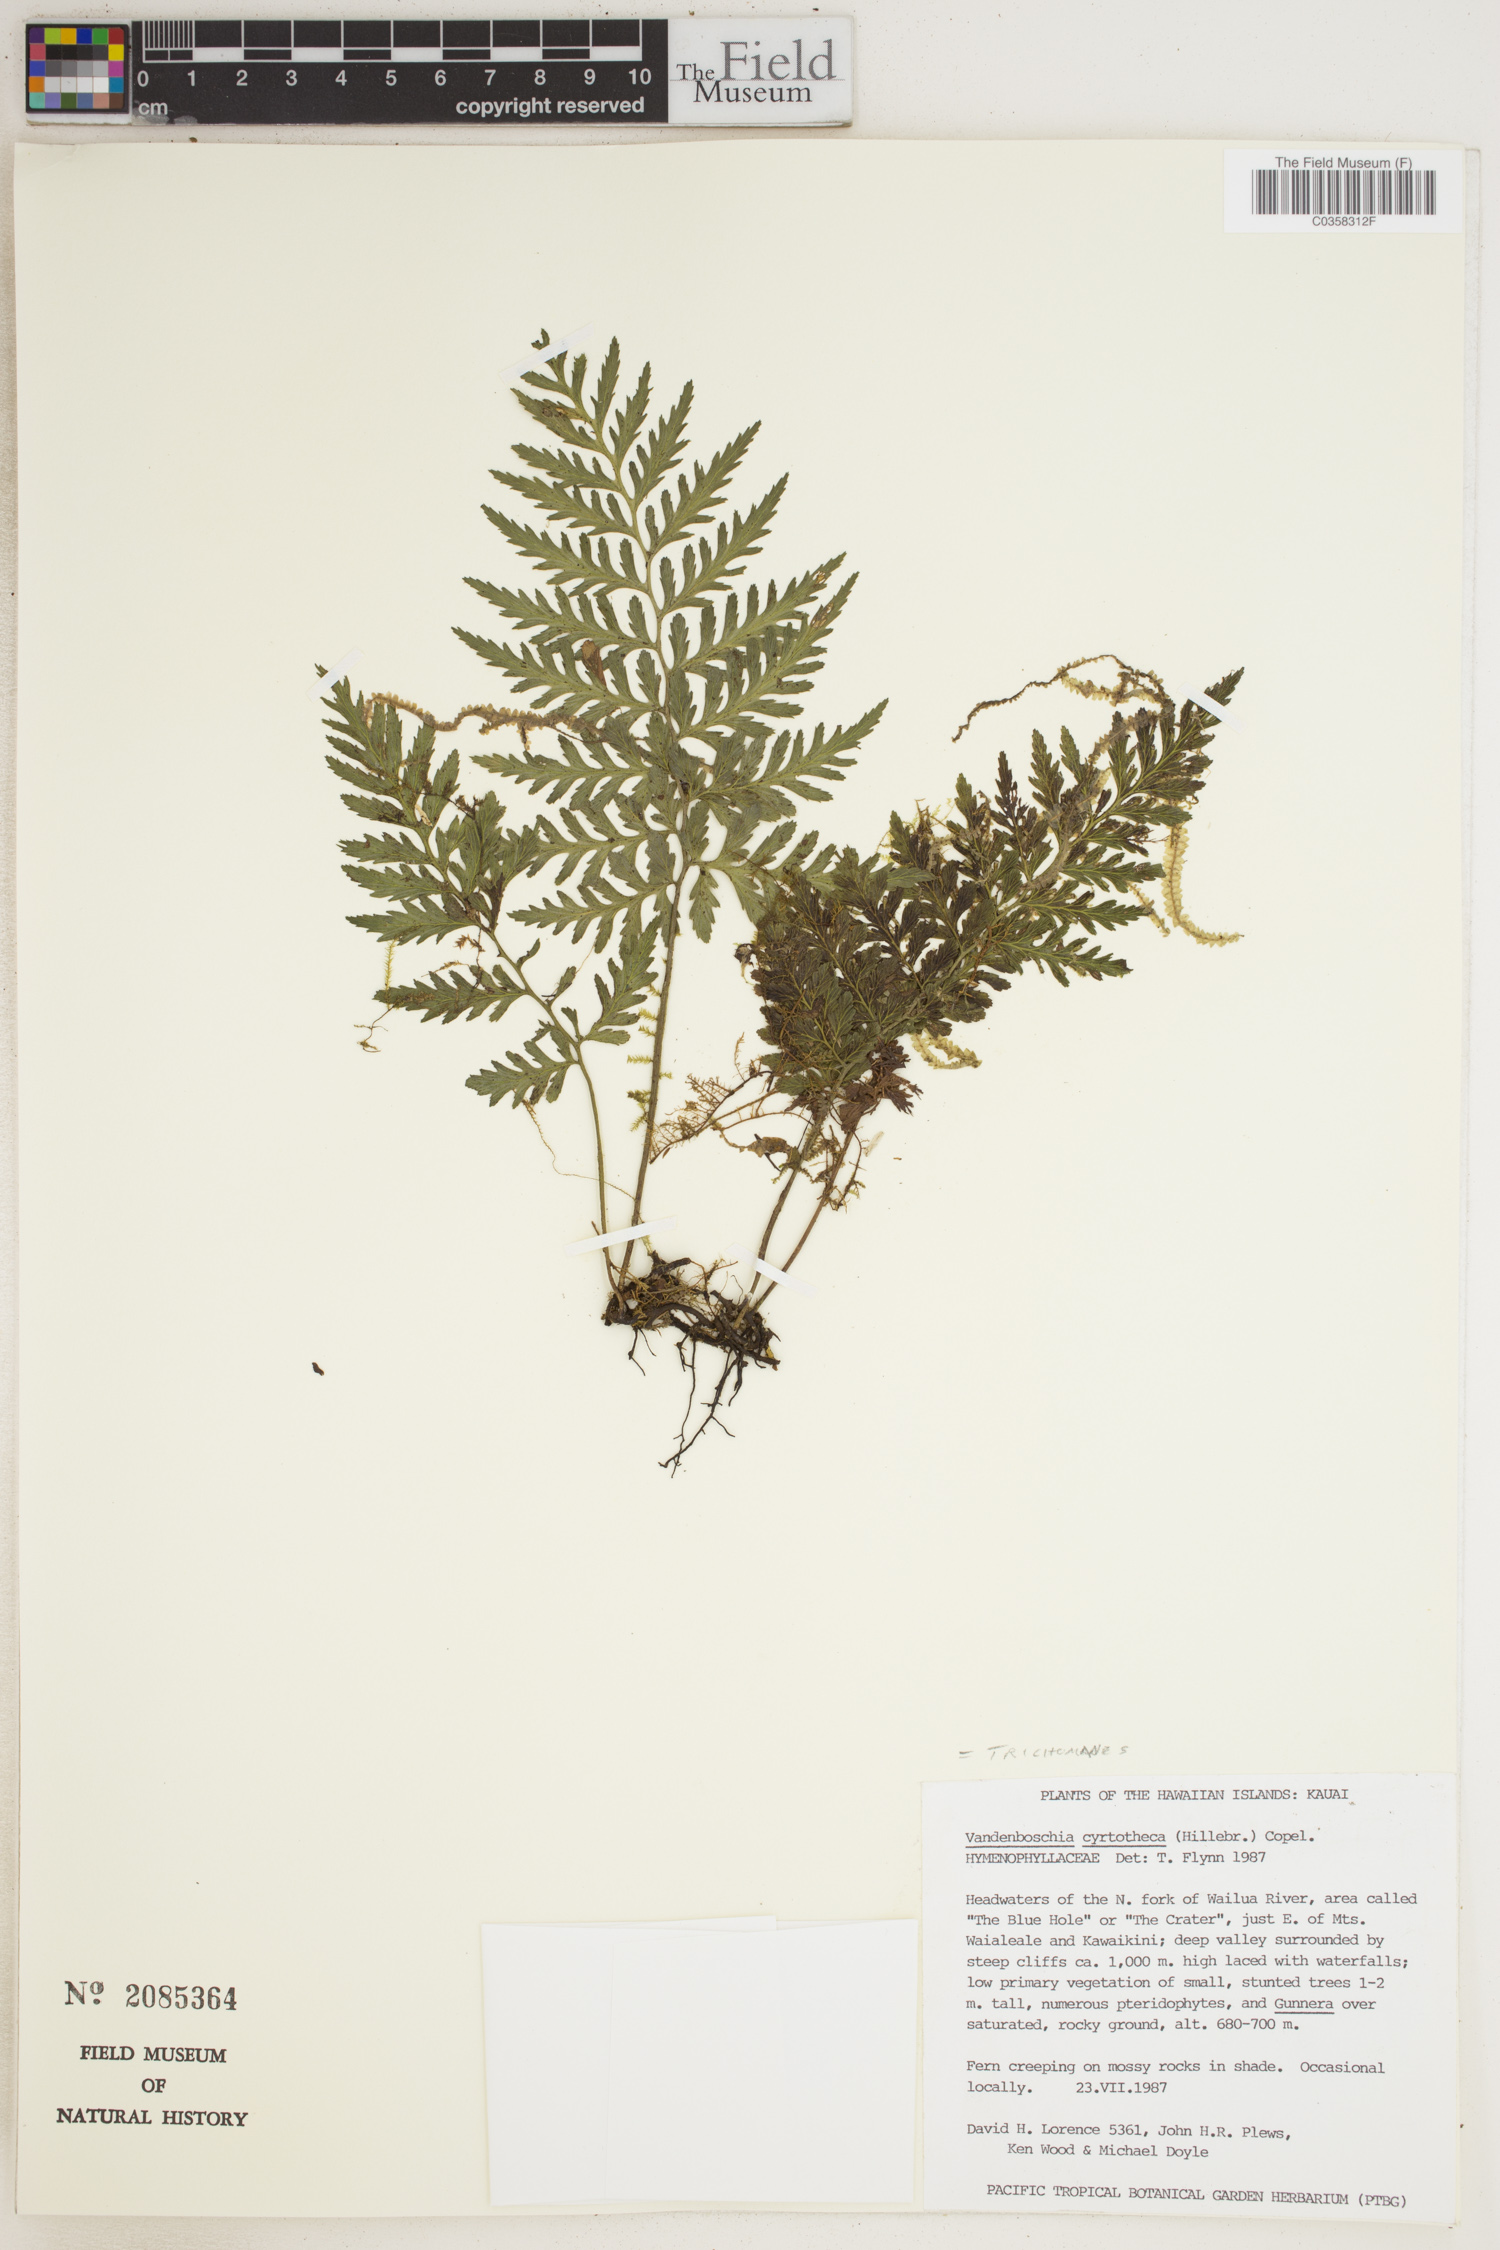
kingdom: Plantae
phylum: Tracheophyta
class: Polypodiopsida
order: Hymenophyllales
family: Hymenophyllaceae
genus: Vandenboschia
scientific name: Vandenboschia cyrtotheca
